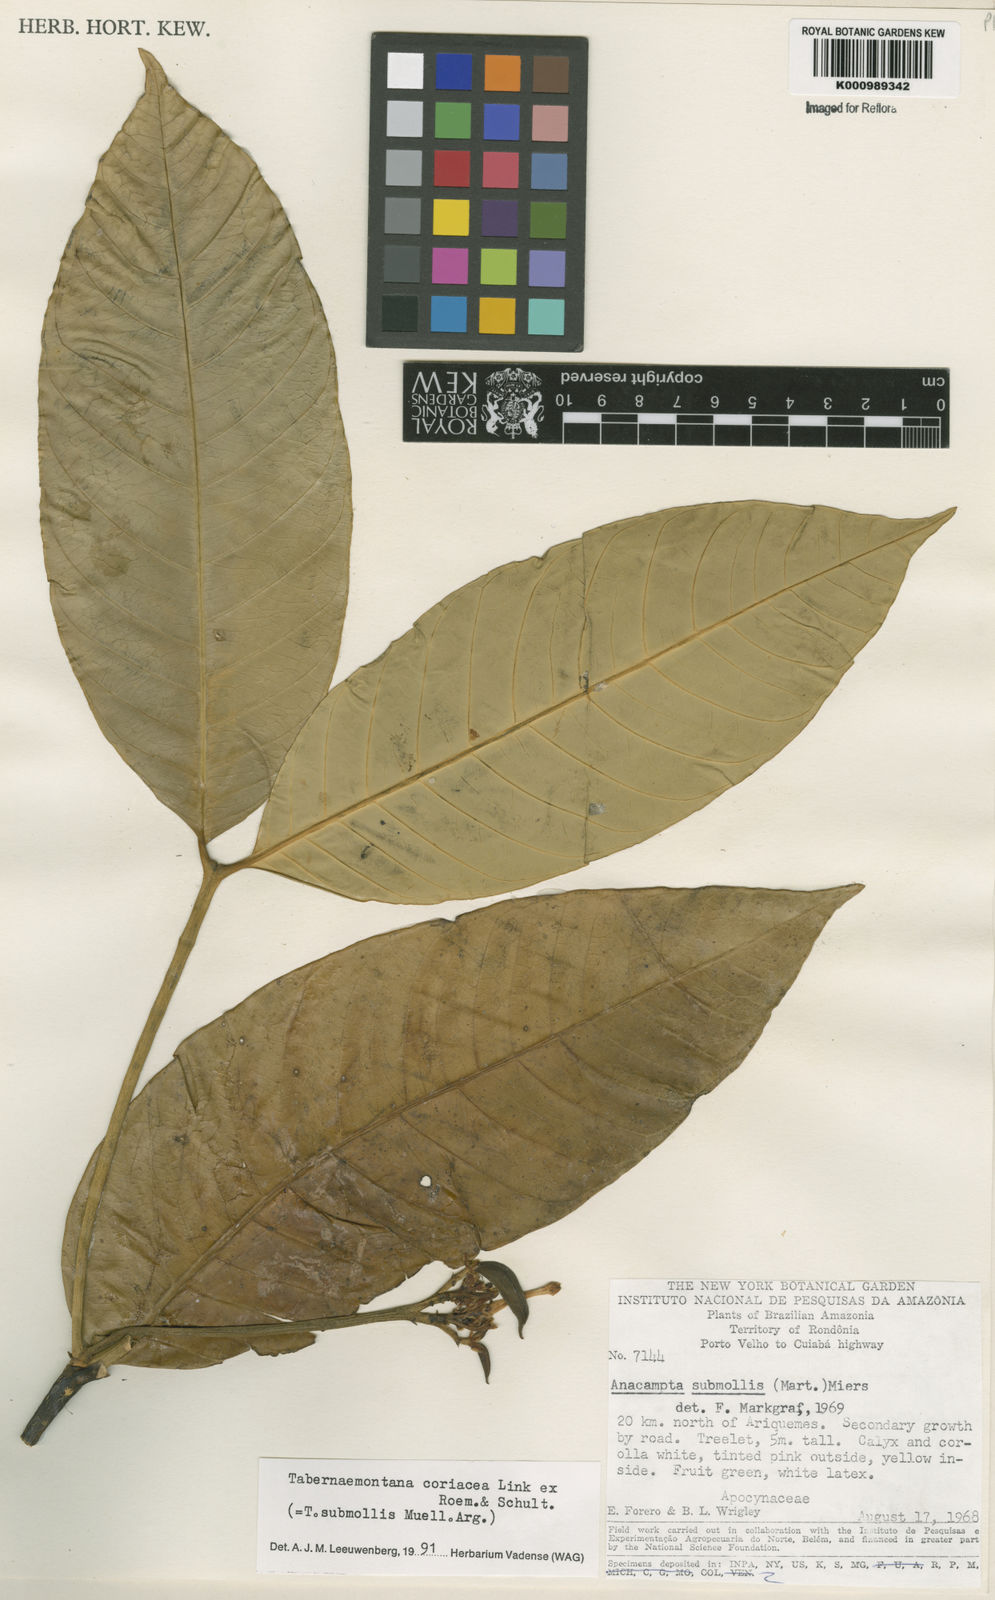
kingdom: Plantae
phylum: Tracheophyta
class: Magnoliopsida
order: Gentianales
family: Apocynaceae
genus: Tabernaemontana
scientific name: Tabernaemontana coriacea
